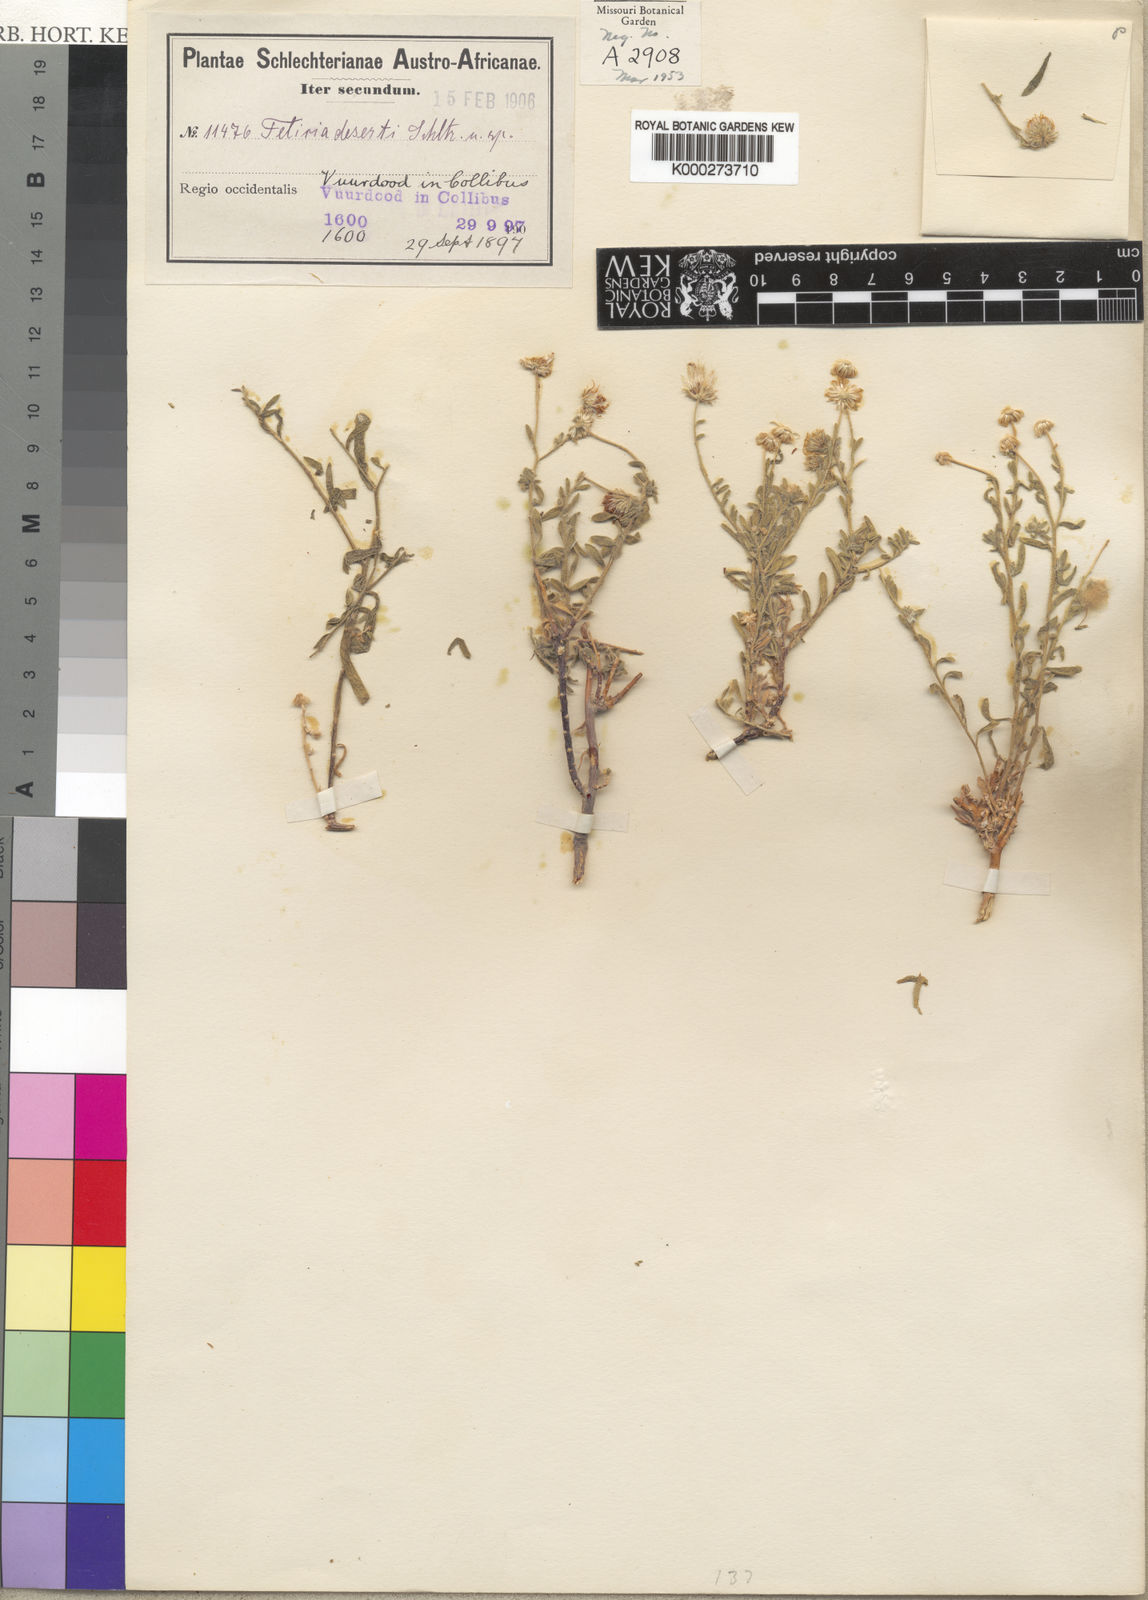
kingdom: Plantae
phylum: Tracheophyta
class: Magnoliopsida
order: Asterales
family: Asteraceae
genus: Felicia
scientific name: Felicia
